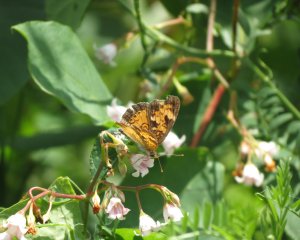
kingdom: Animalia
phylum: Arthropoda
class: Insecta
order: Lepidoptera
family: Nymphalidae
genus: Phyciodes
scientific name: Phyciodes tharos
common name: Northern Crescent
